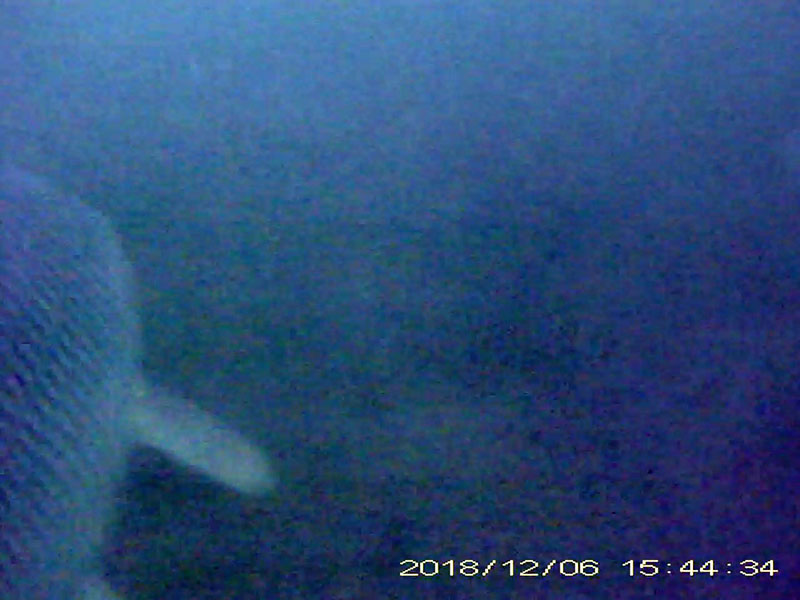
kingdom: Animalia
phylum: Chordata
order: Cypriniformes
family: Cyprinidae
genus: Hemibarbus
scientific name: Hemibarbus labeo
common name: ニゴイ
